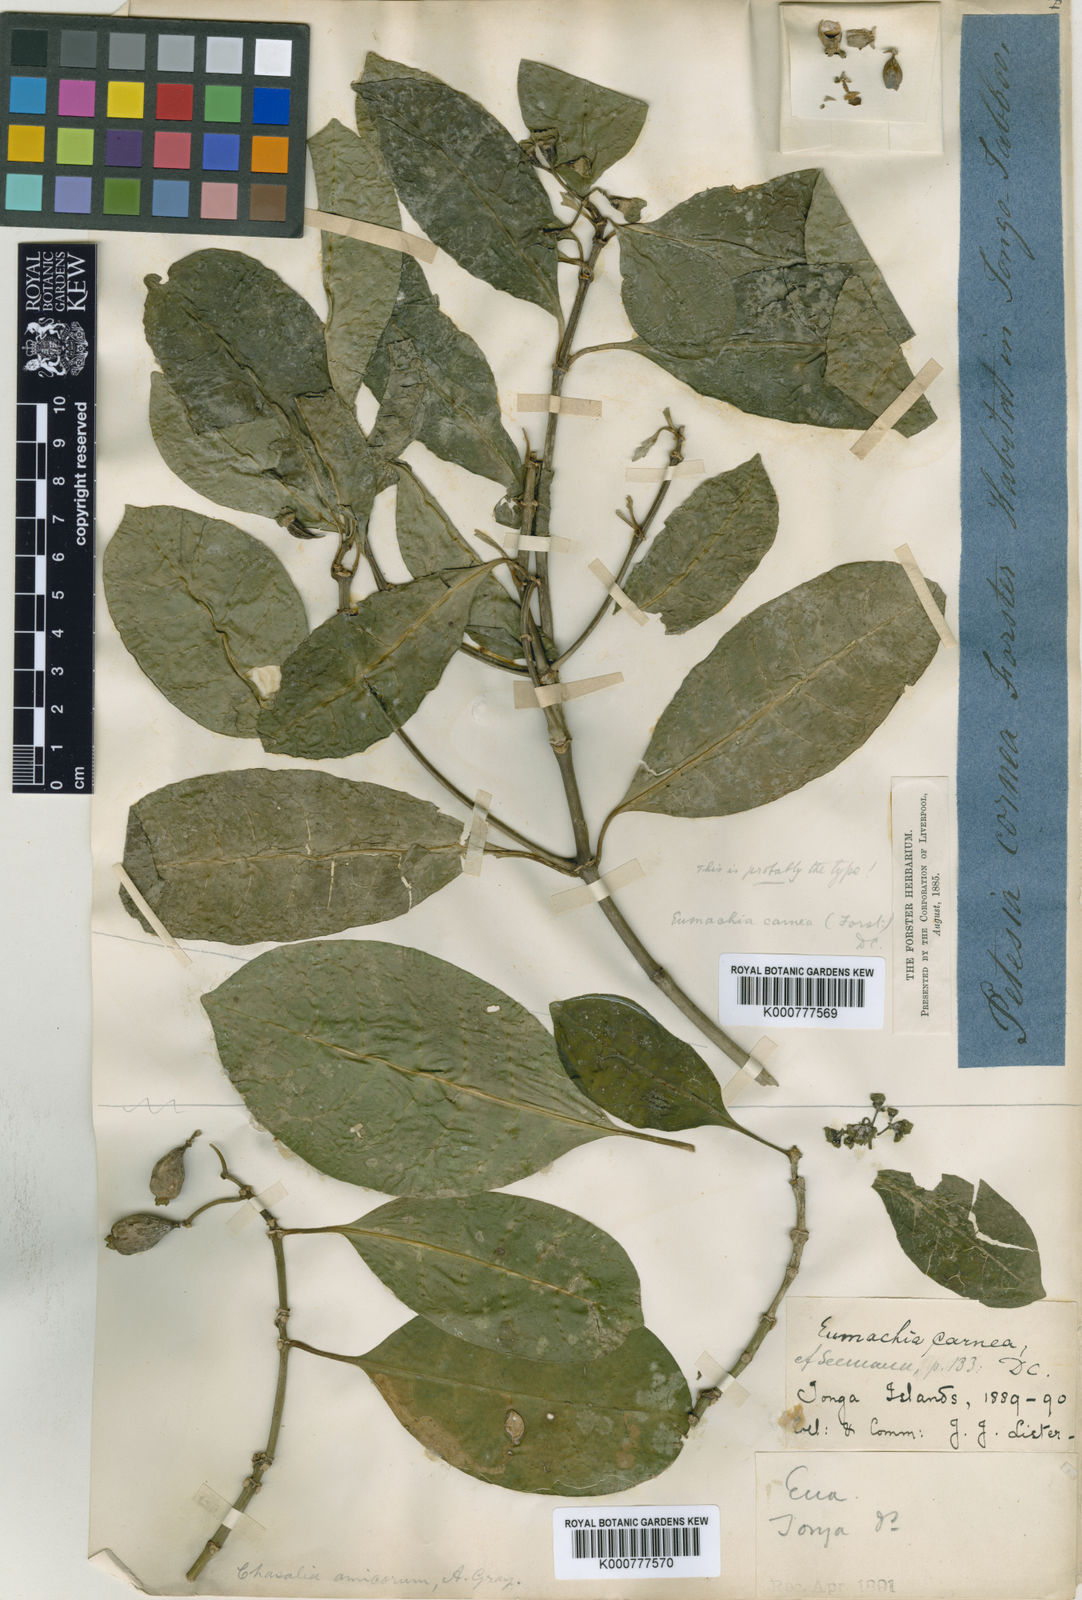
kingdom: Plantae
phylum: Tracheophyta
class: Magnoliopsida
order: Gentianales
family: Rubiaceae
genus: Eumachia
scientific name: Eumachia carnea
